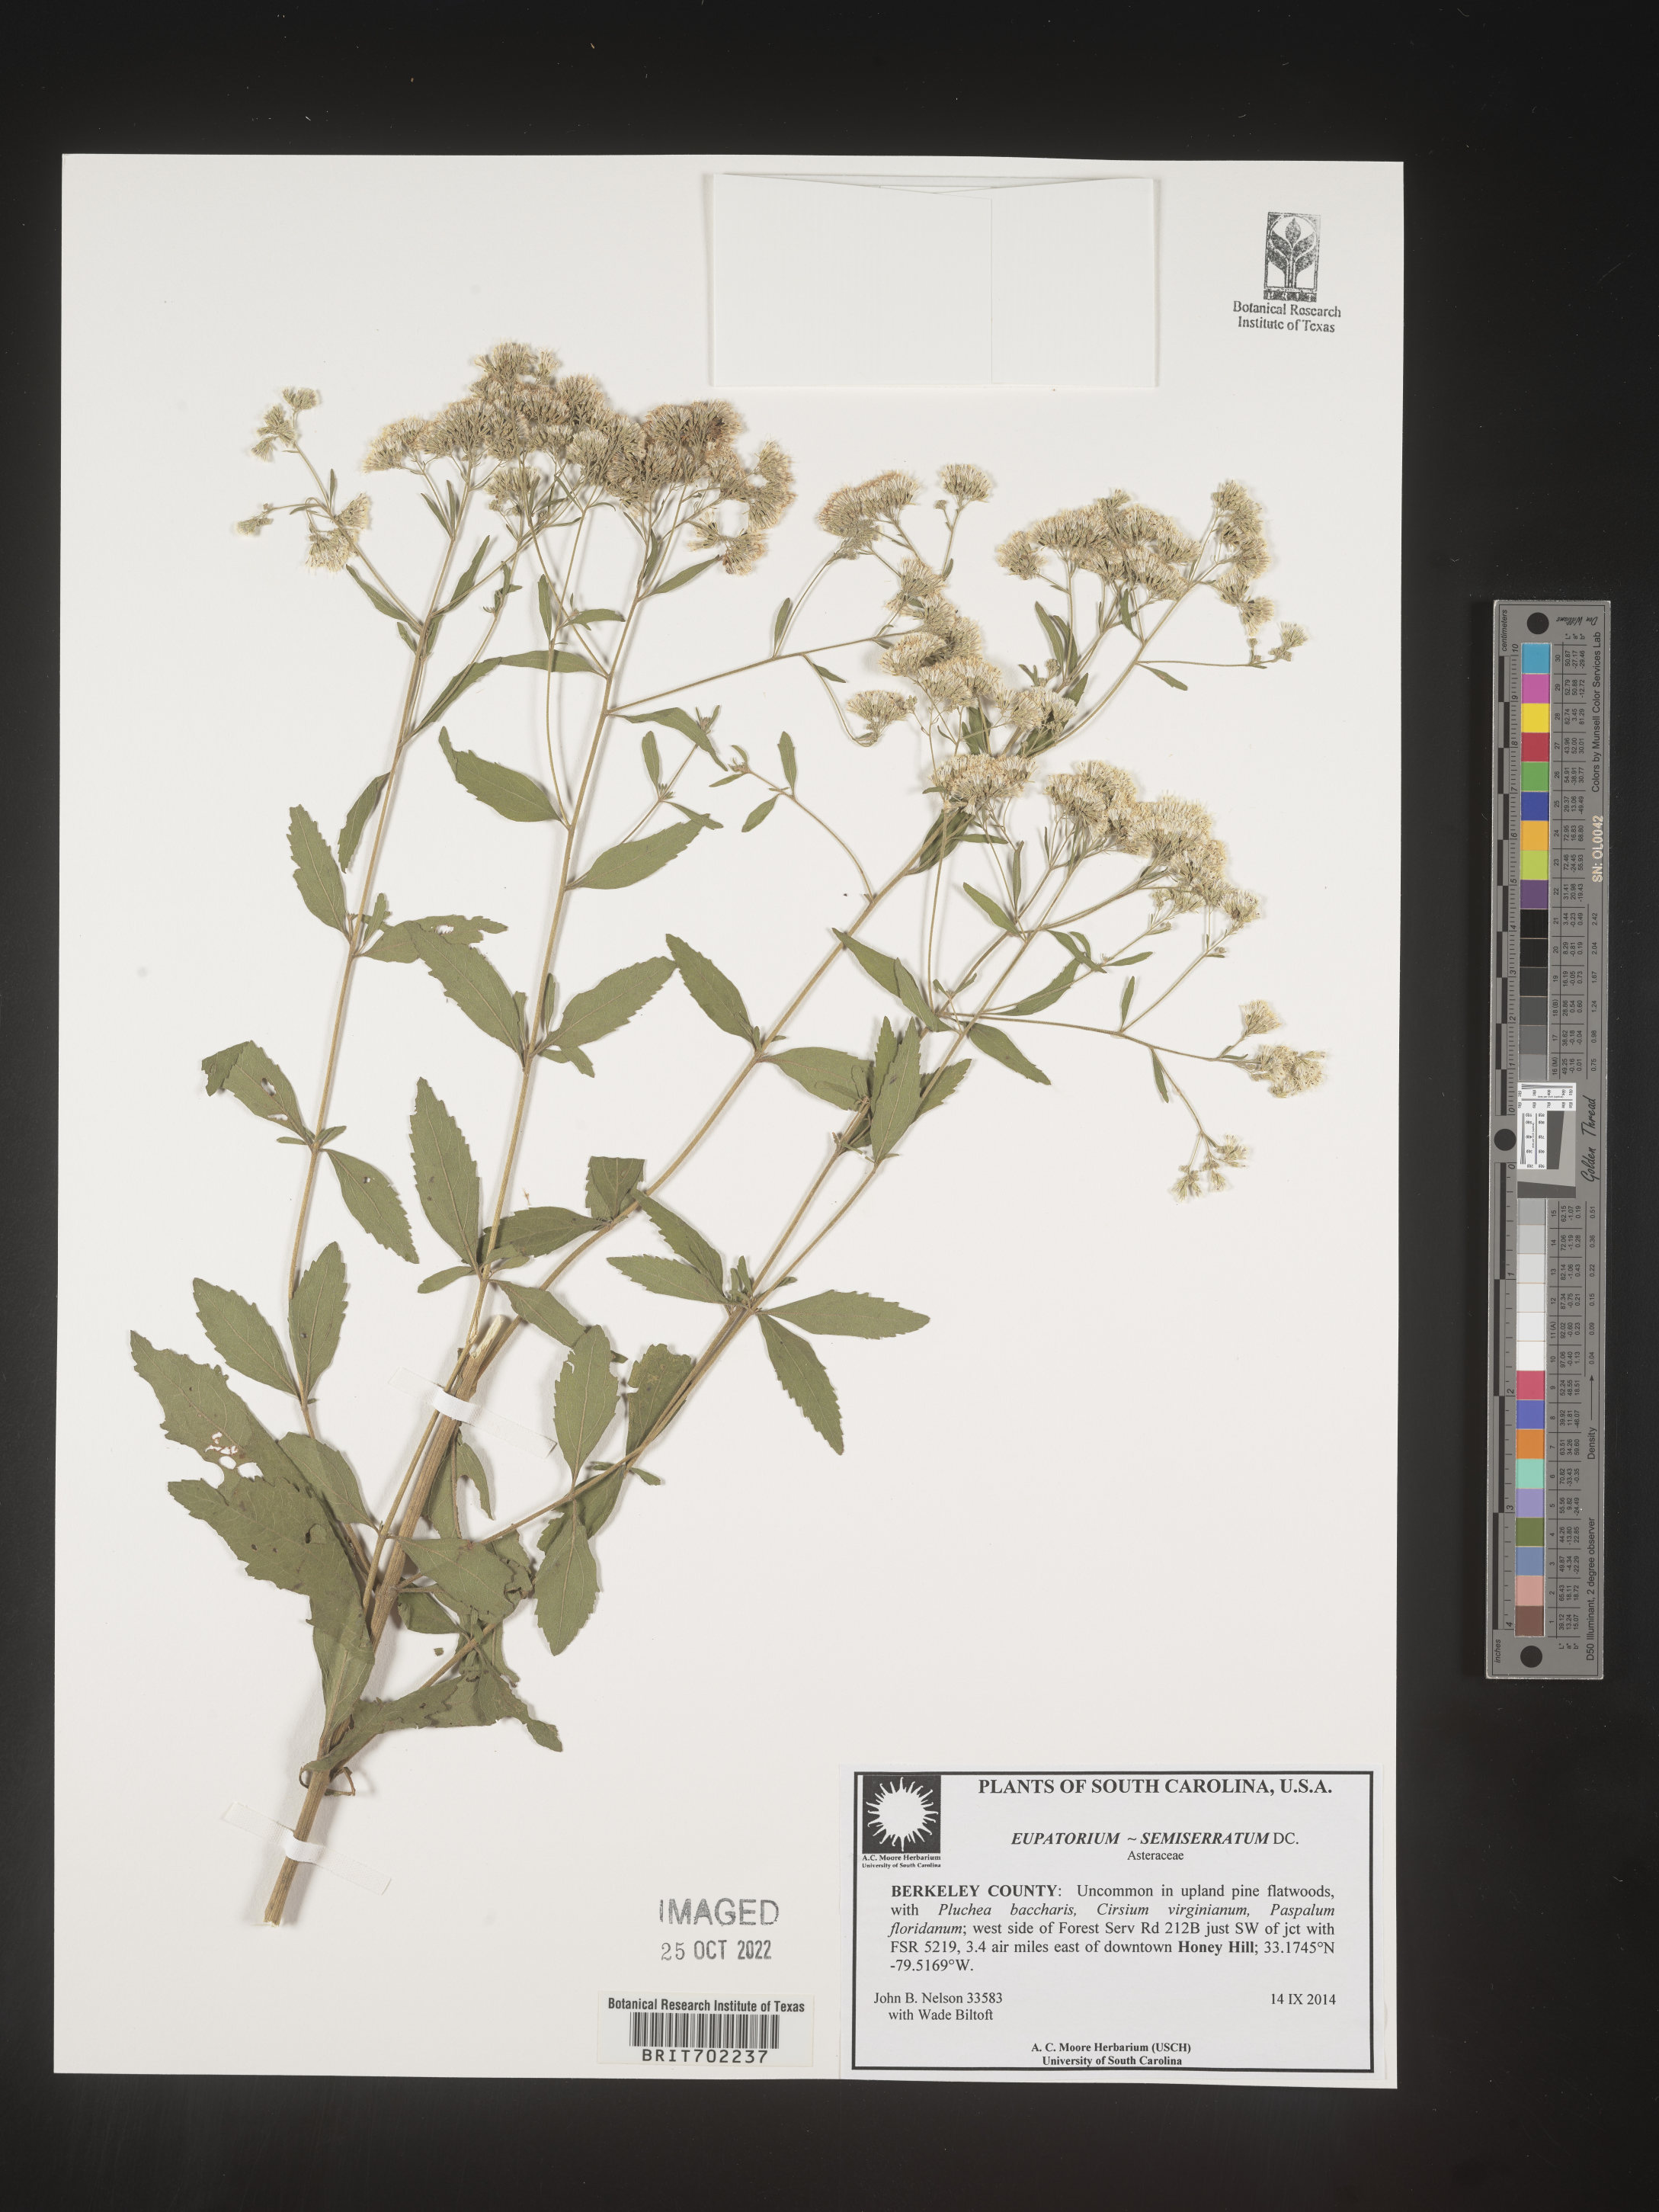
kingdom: Plantae
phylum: Tracheophyta
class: Magnoliopsida
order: Asterales
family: Asteraceae
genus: Eupatorium
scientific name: Eupatorium semiserratum
